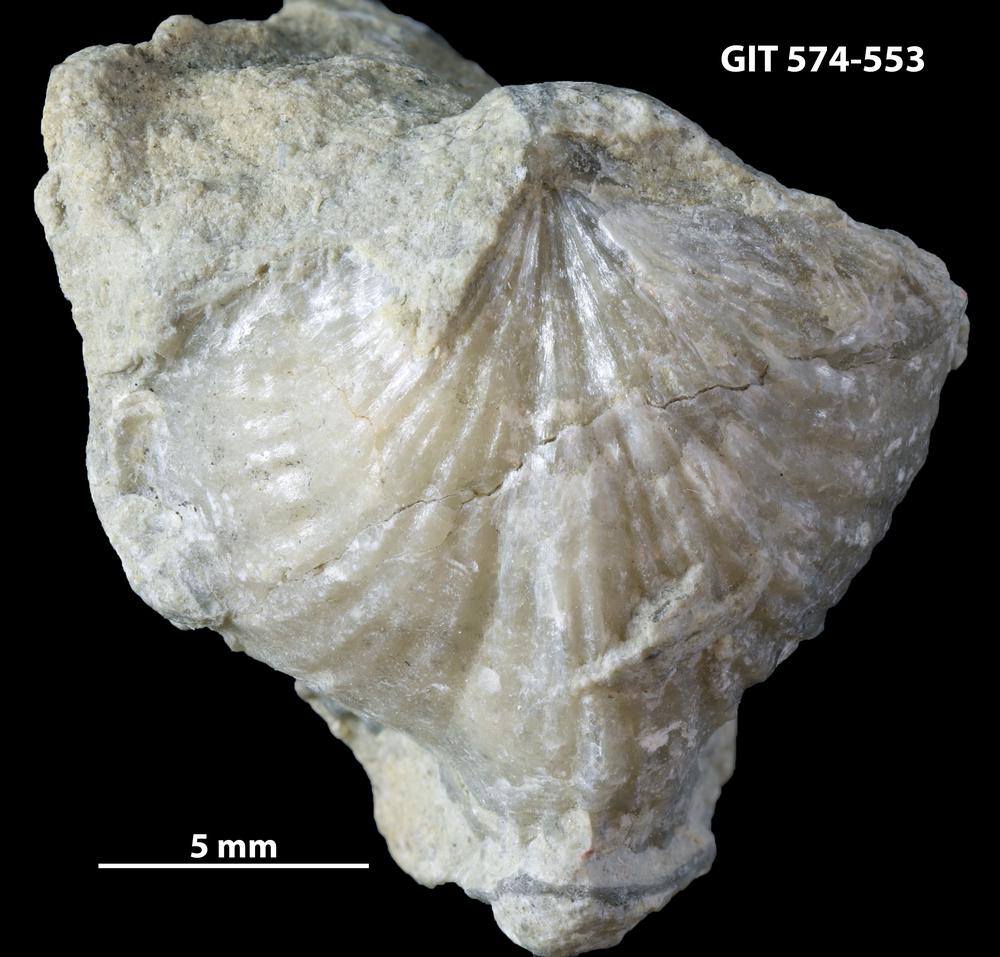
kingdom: Animalia
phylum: Brachiopoda
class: Rhynchonellata
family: Atrypinidae
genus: Eospirigerina
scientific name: Eospirigerina
